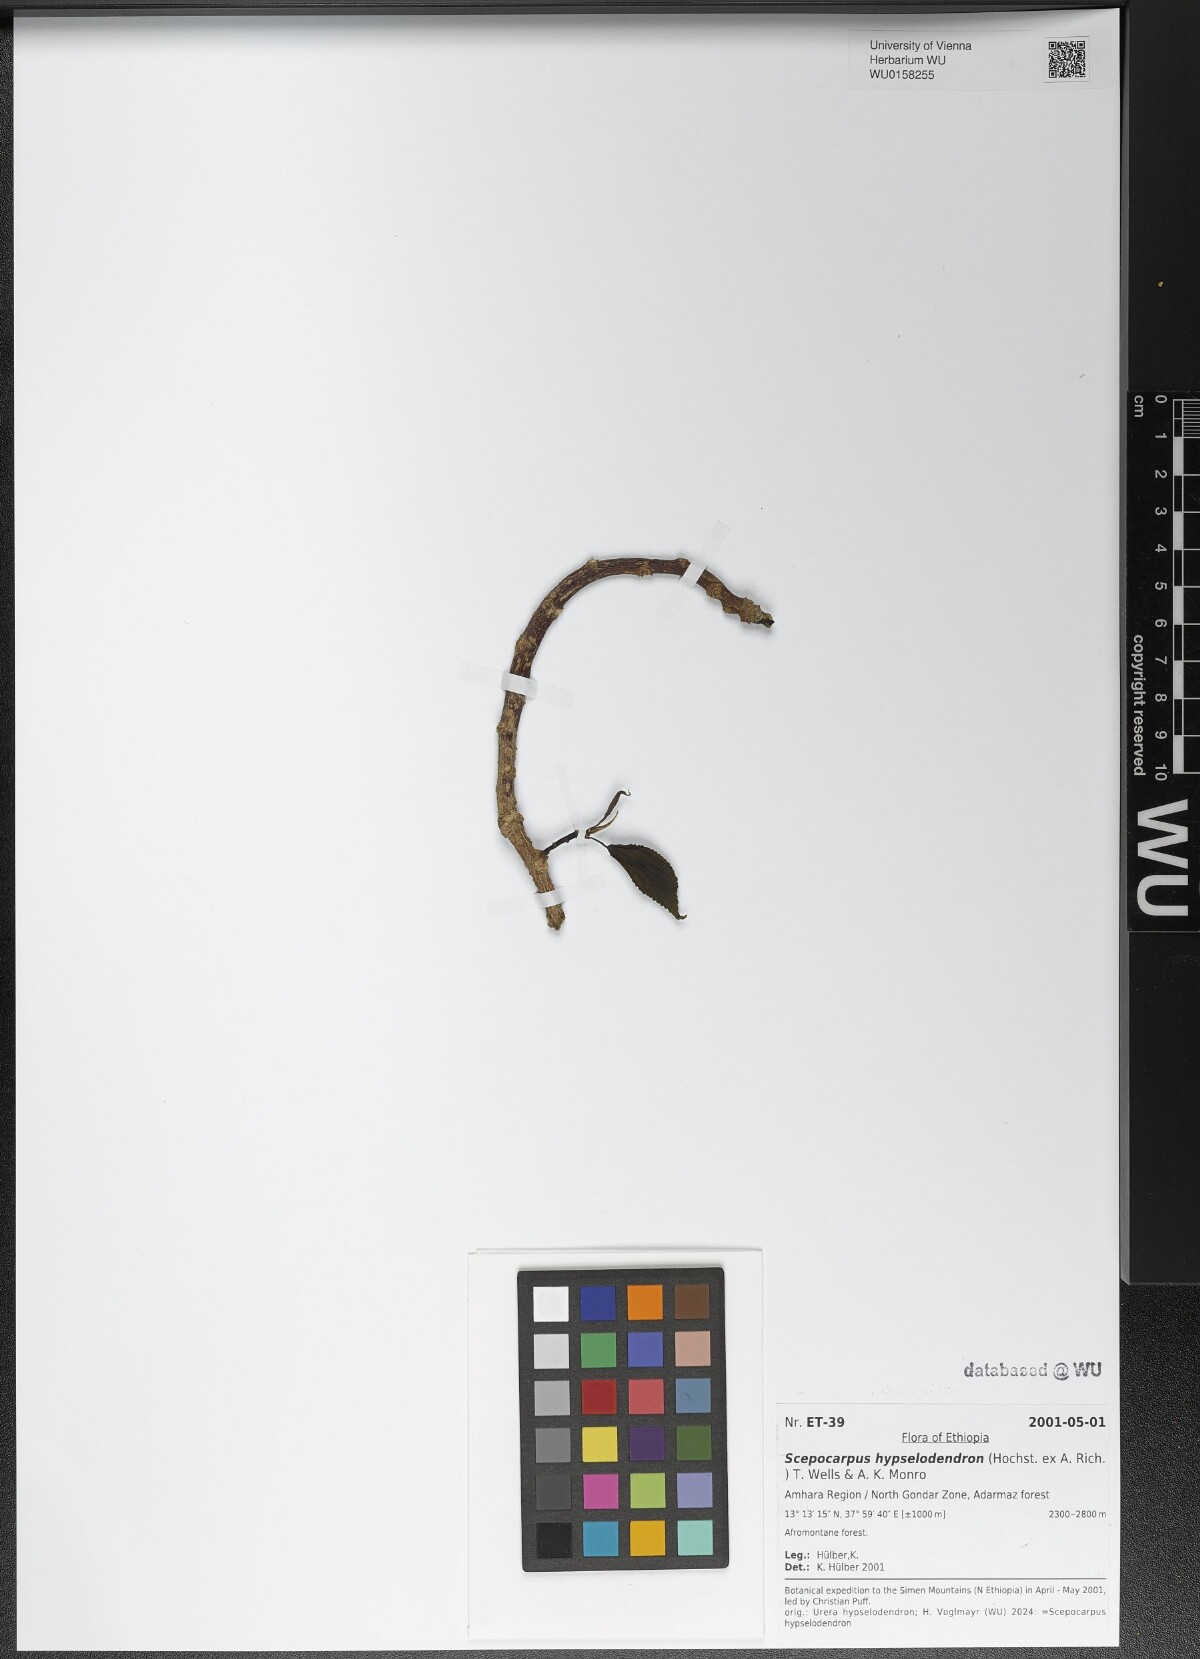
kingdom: Plantae
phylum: Tracheophyta
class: Magnoliopsida
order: Rosales
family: Urticaceae
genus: Scepocarpus
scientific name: Scepocarpus hypselodendron
